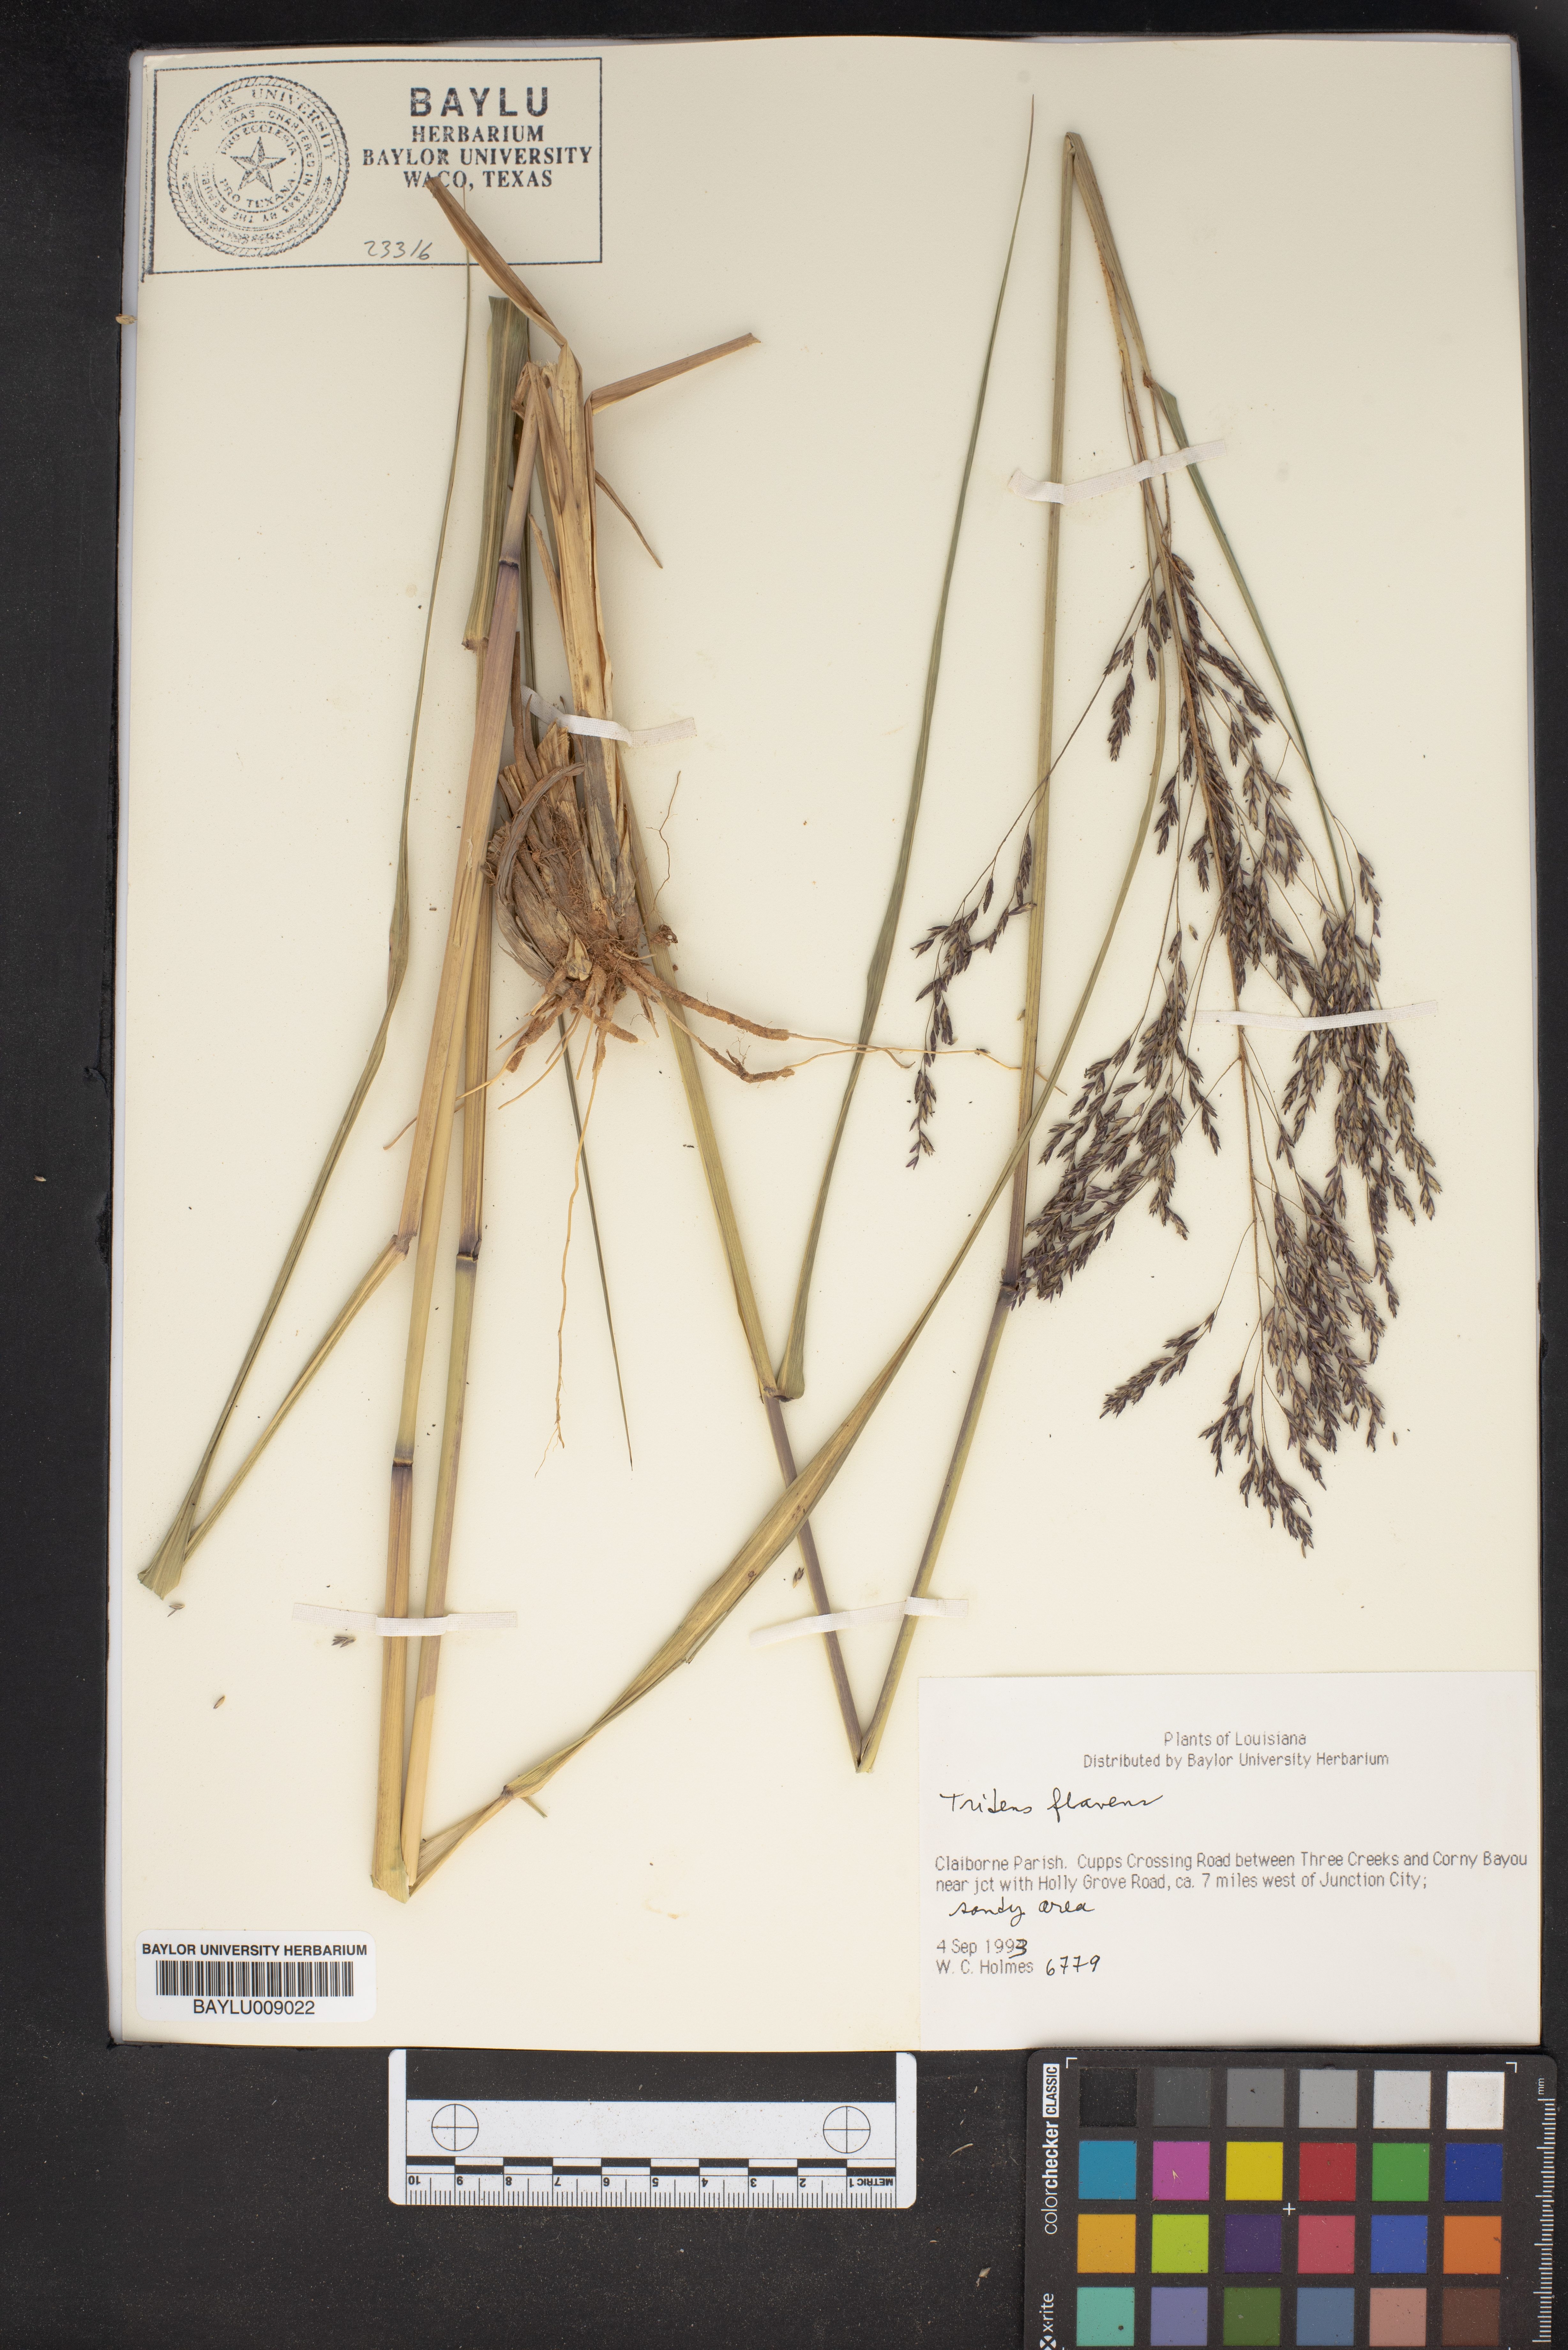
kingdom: Plantae
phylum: Tracheophyta
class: Liliopsida
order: Poales
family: Poaceae
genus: Tridens
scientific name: Tridens flavus
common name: Purpletop
